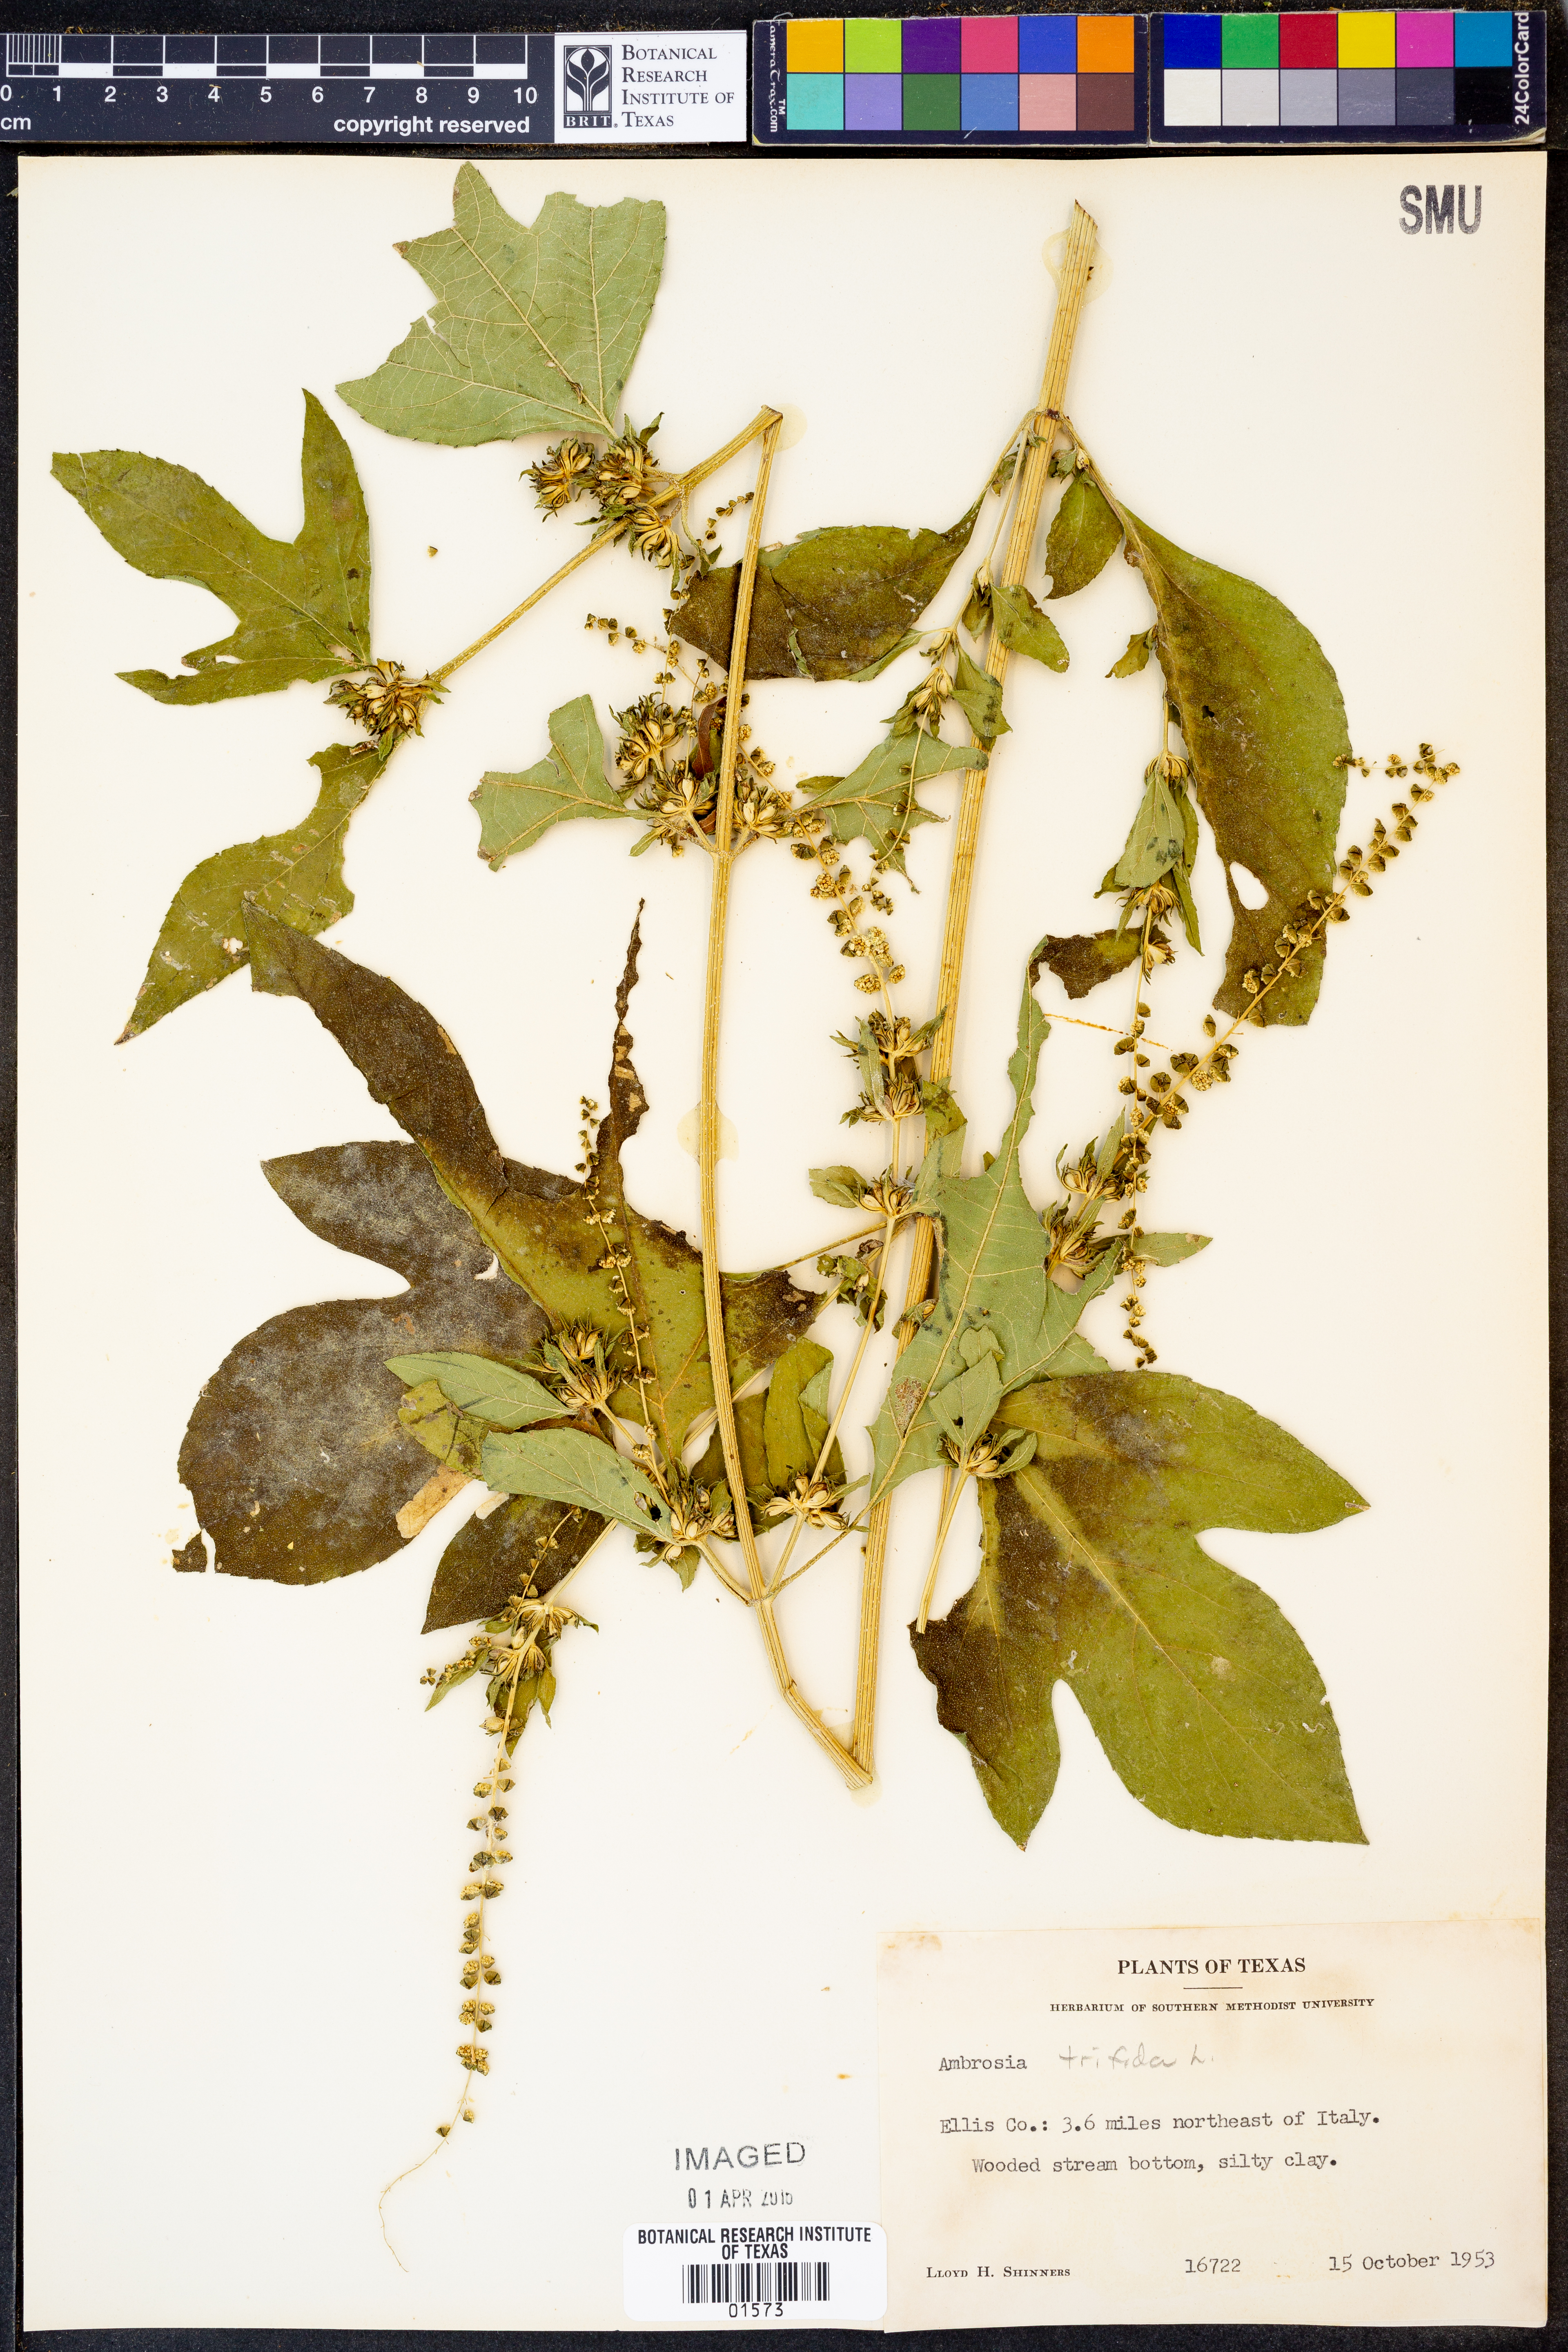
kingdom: Plantae
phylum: Tracheophyta
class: Magnoliopsida
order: Asterales
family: Asteraceae
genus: Ambrosia
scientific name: Ambrosia trifida
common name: Giant ragweed
